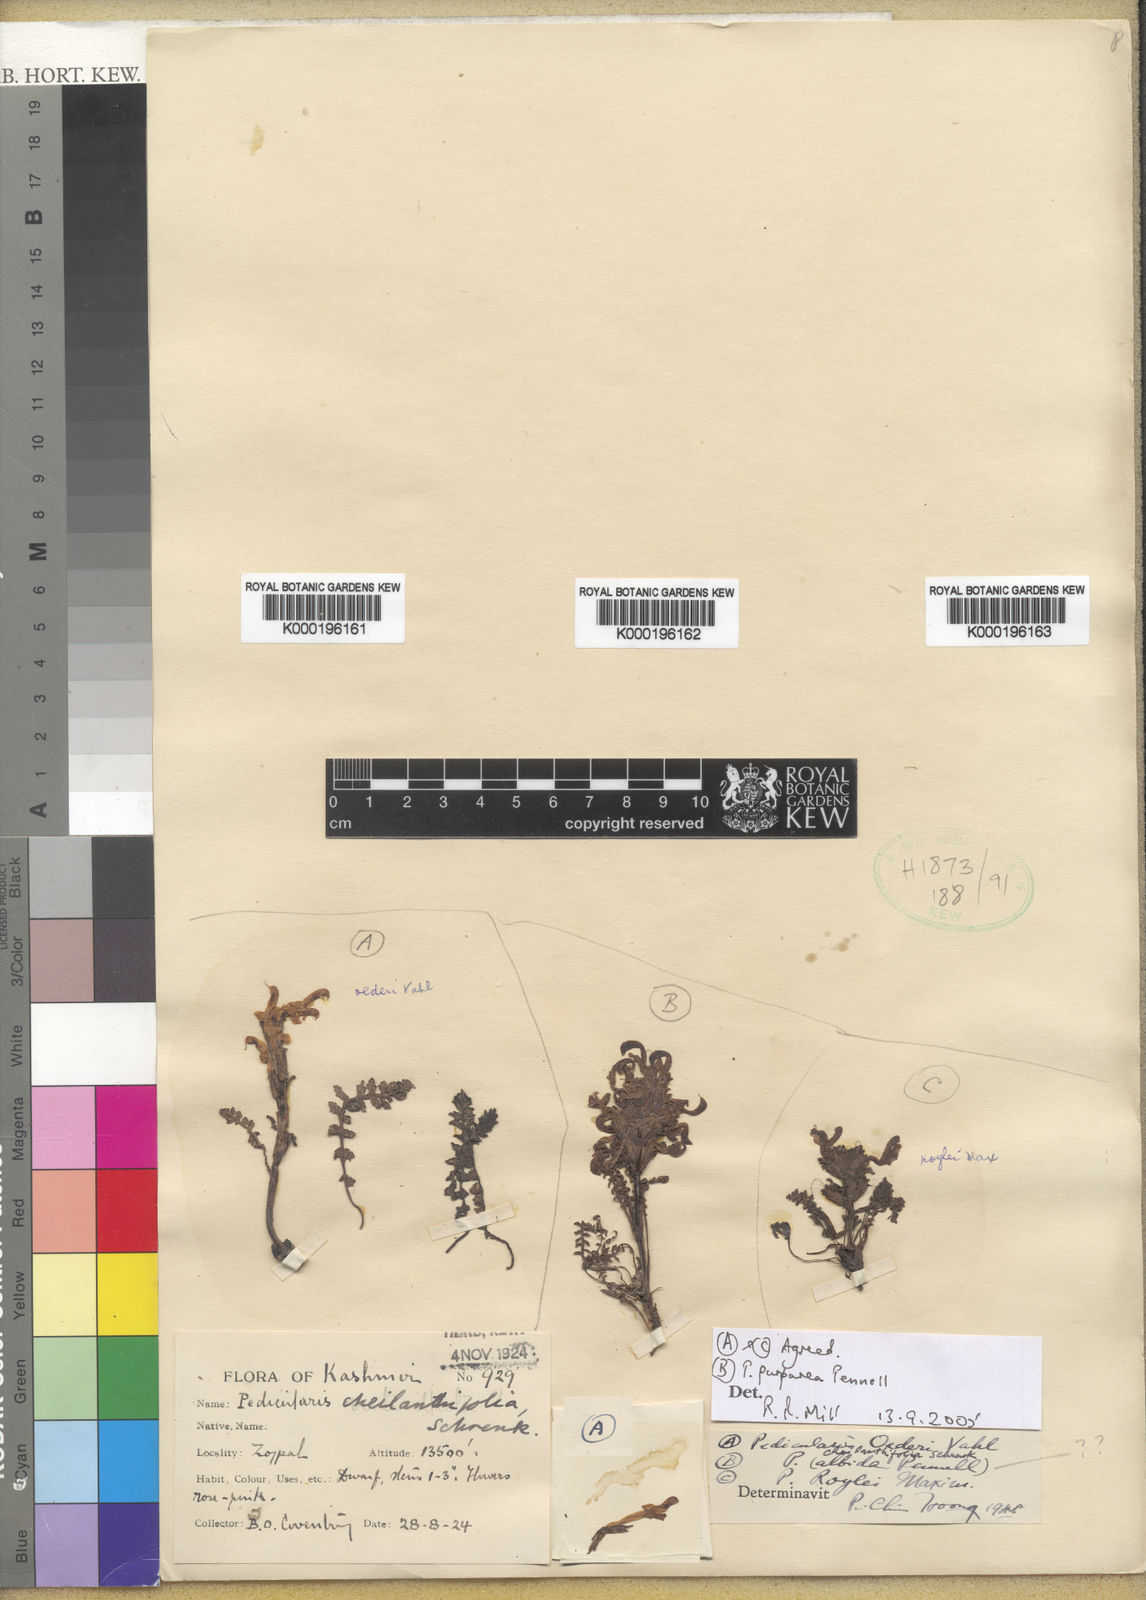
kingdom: Plantae
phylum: Tracheophyta
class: Magnoliopsida
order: Lamiales
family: Orobanchaceae
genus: Pedicularis
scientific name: Pedicularis roylei
